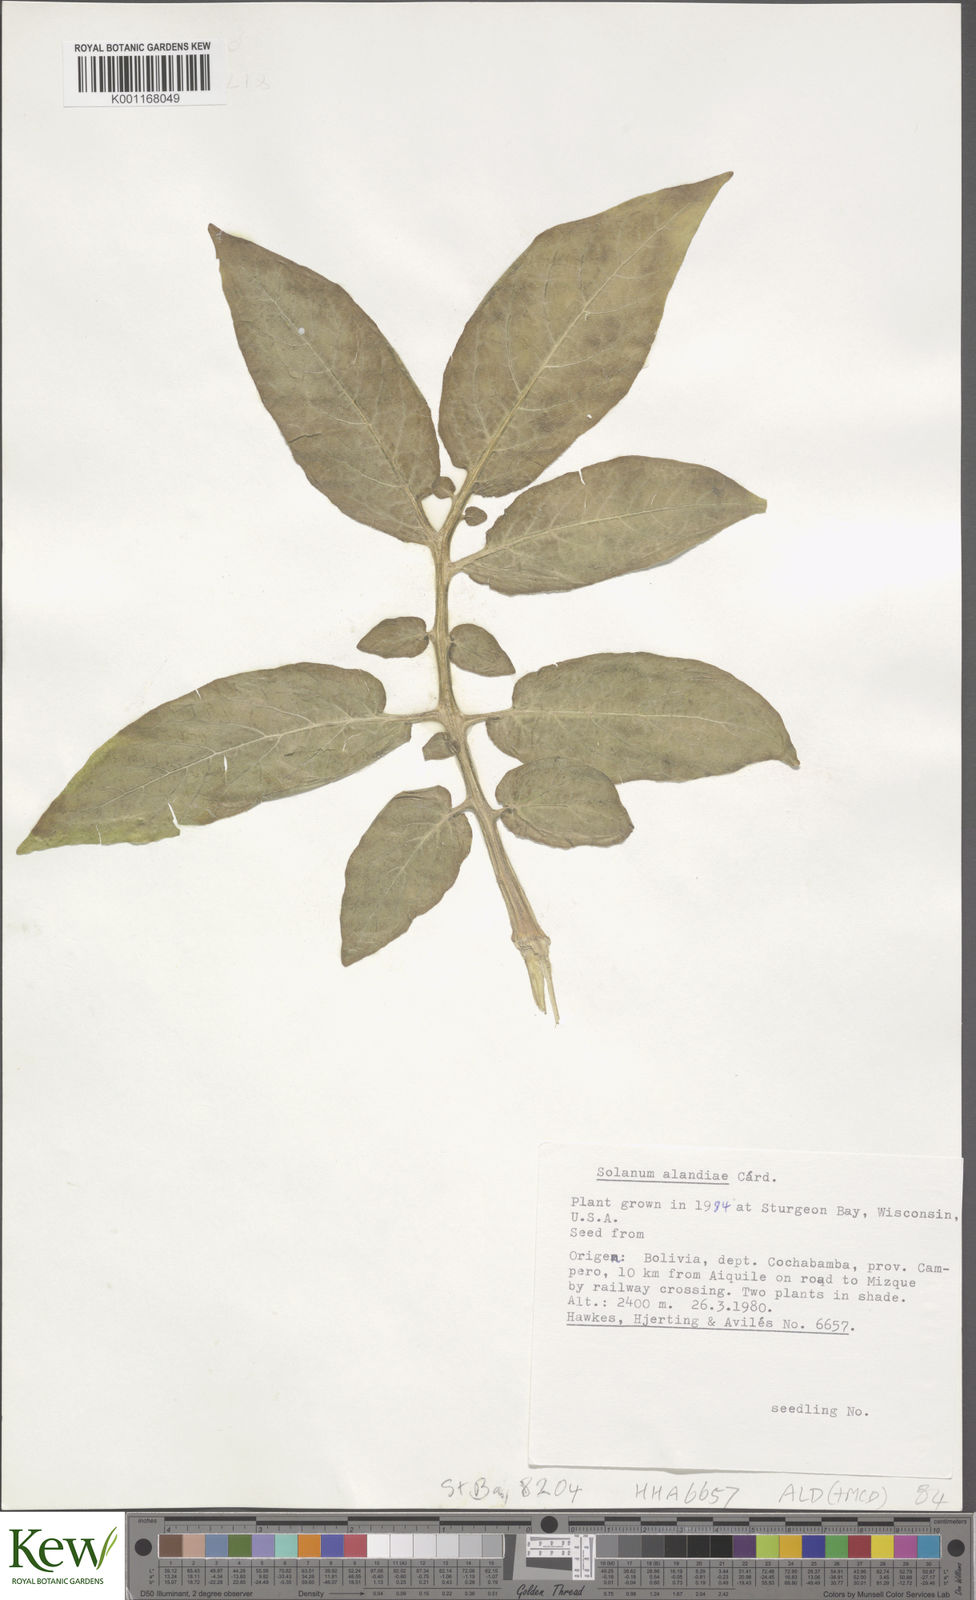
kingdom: Plantae
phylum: Tracheophyta
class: Magnoliopsida
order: Solanales
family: Solanaceae
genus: Solanum
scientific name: Solanum
